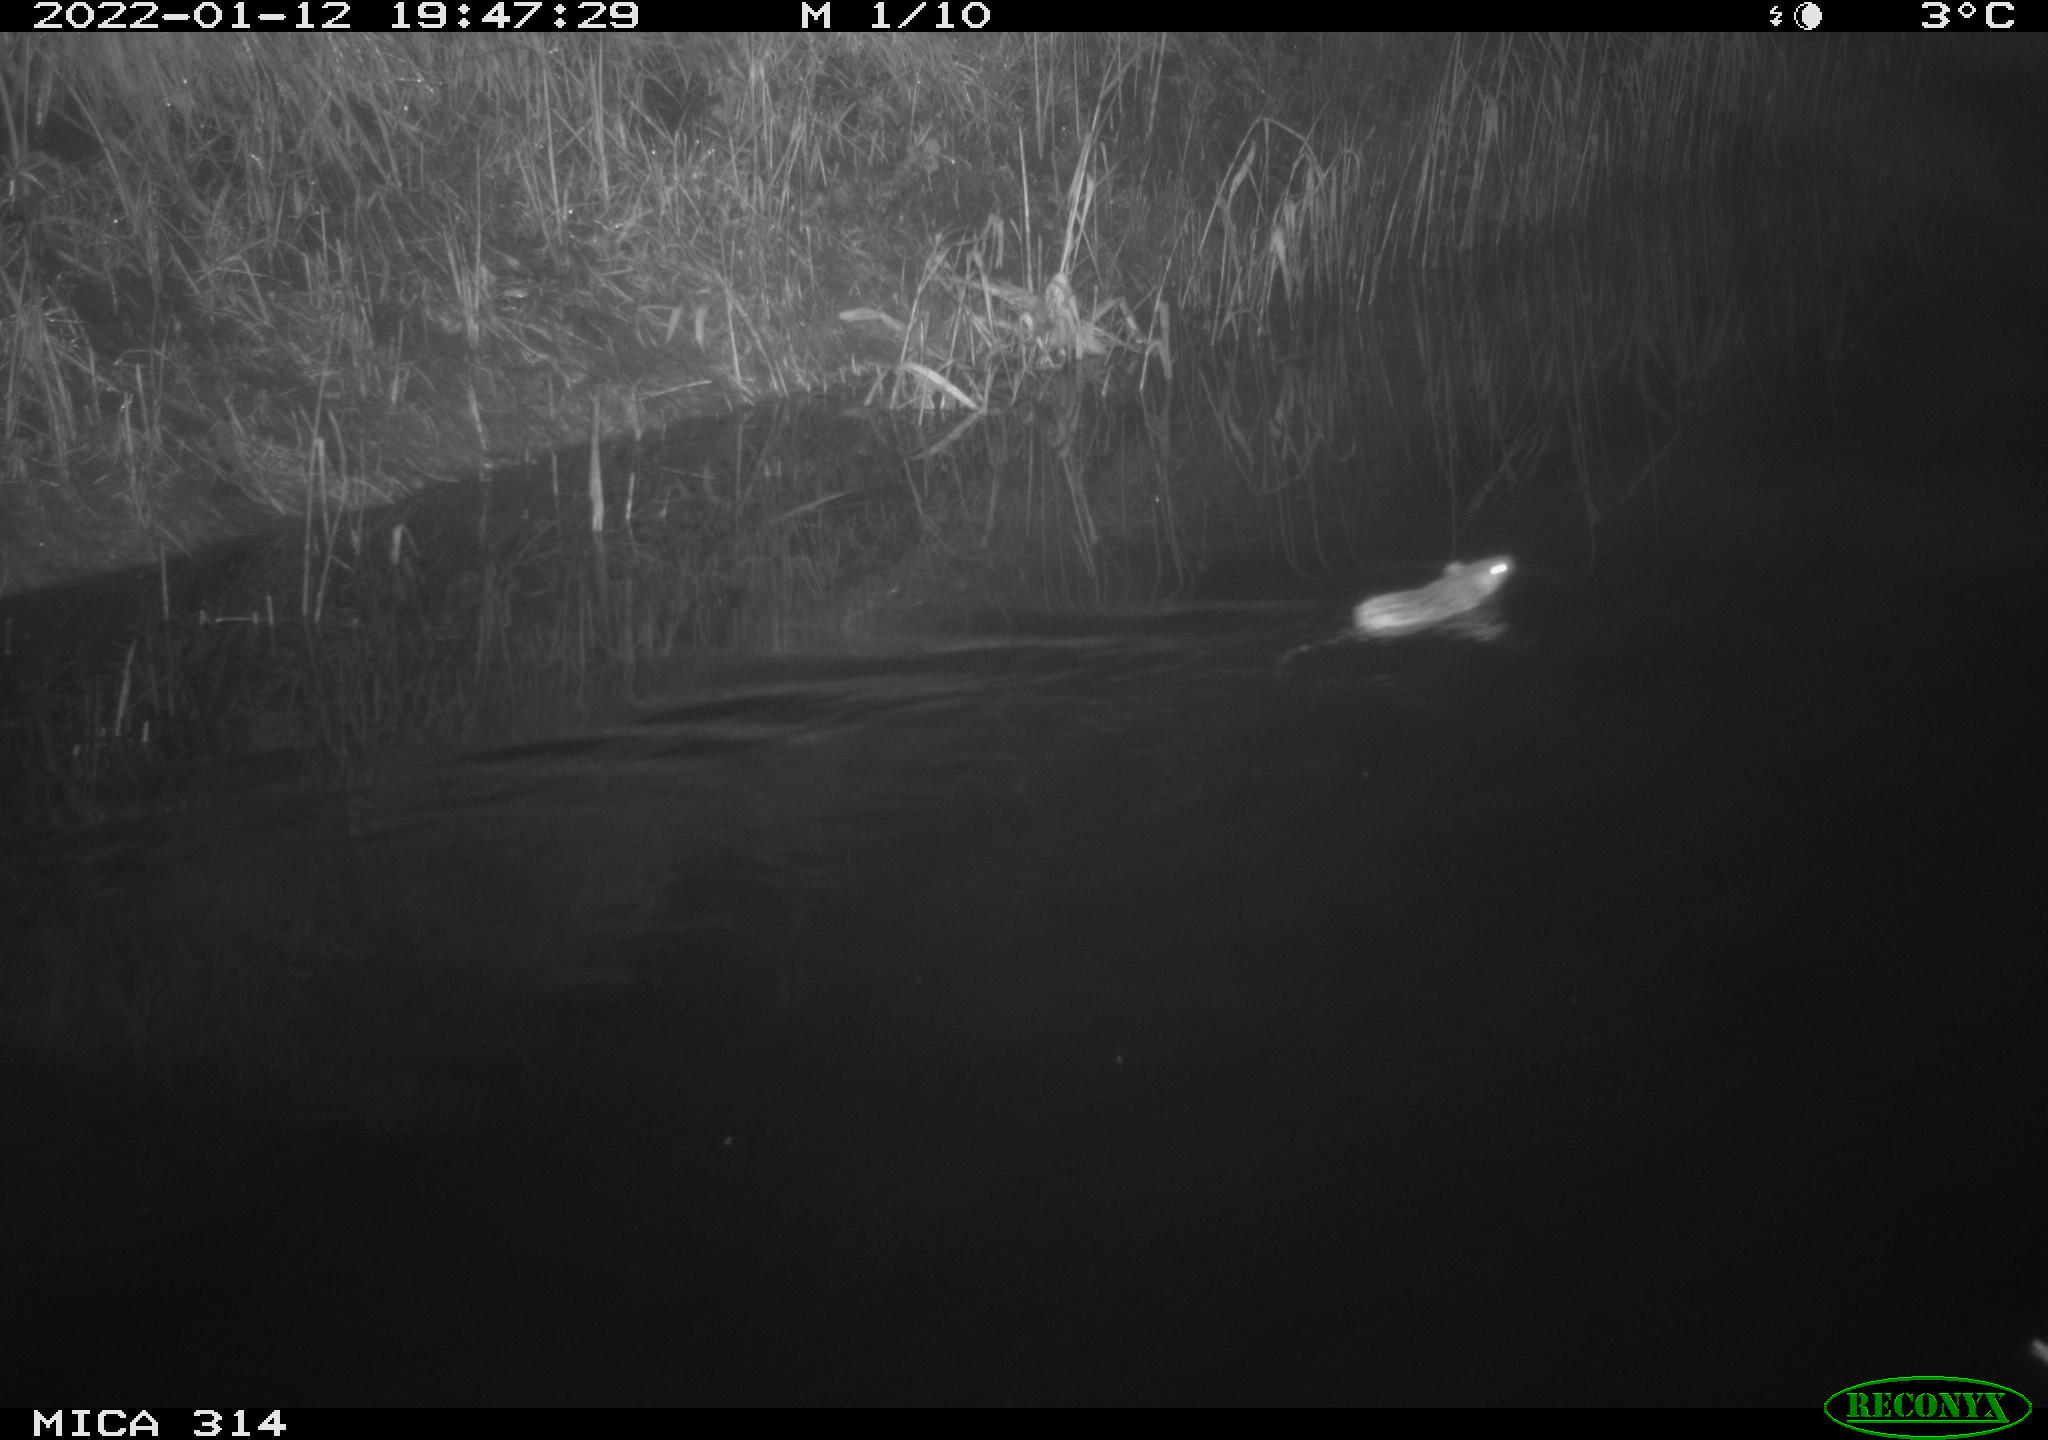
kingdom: Animalia
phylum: Chordata
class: Mammalia
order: Rodentia
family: Muridae
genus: Rattus
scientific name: Rattus norvegicus
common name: Brown rat
